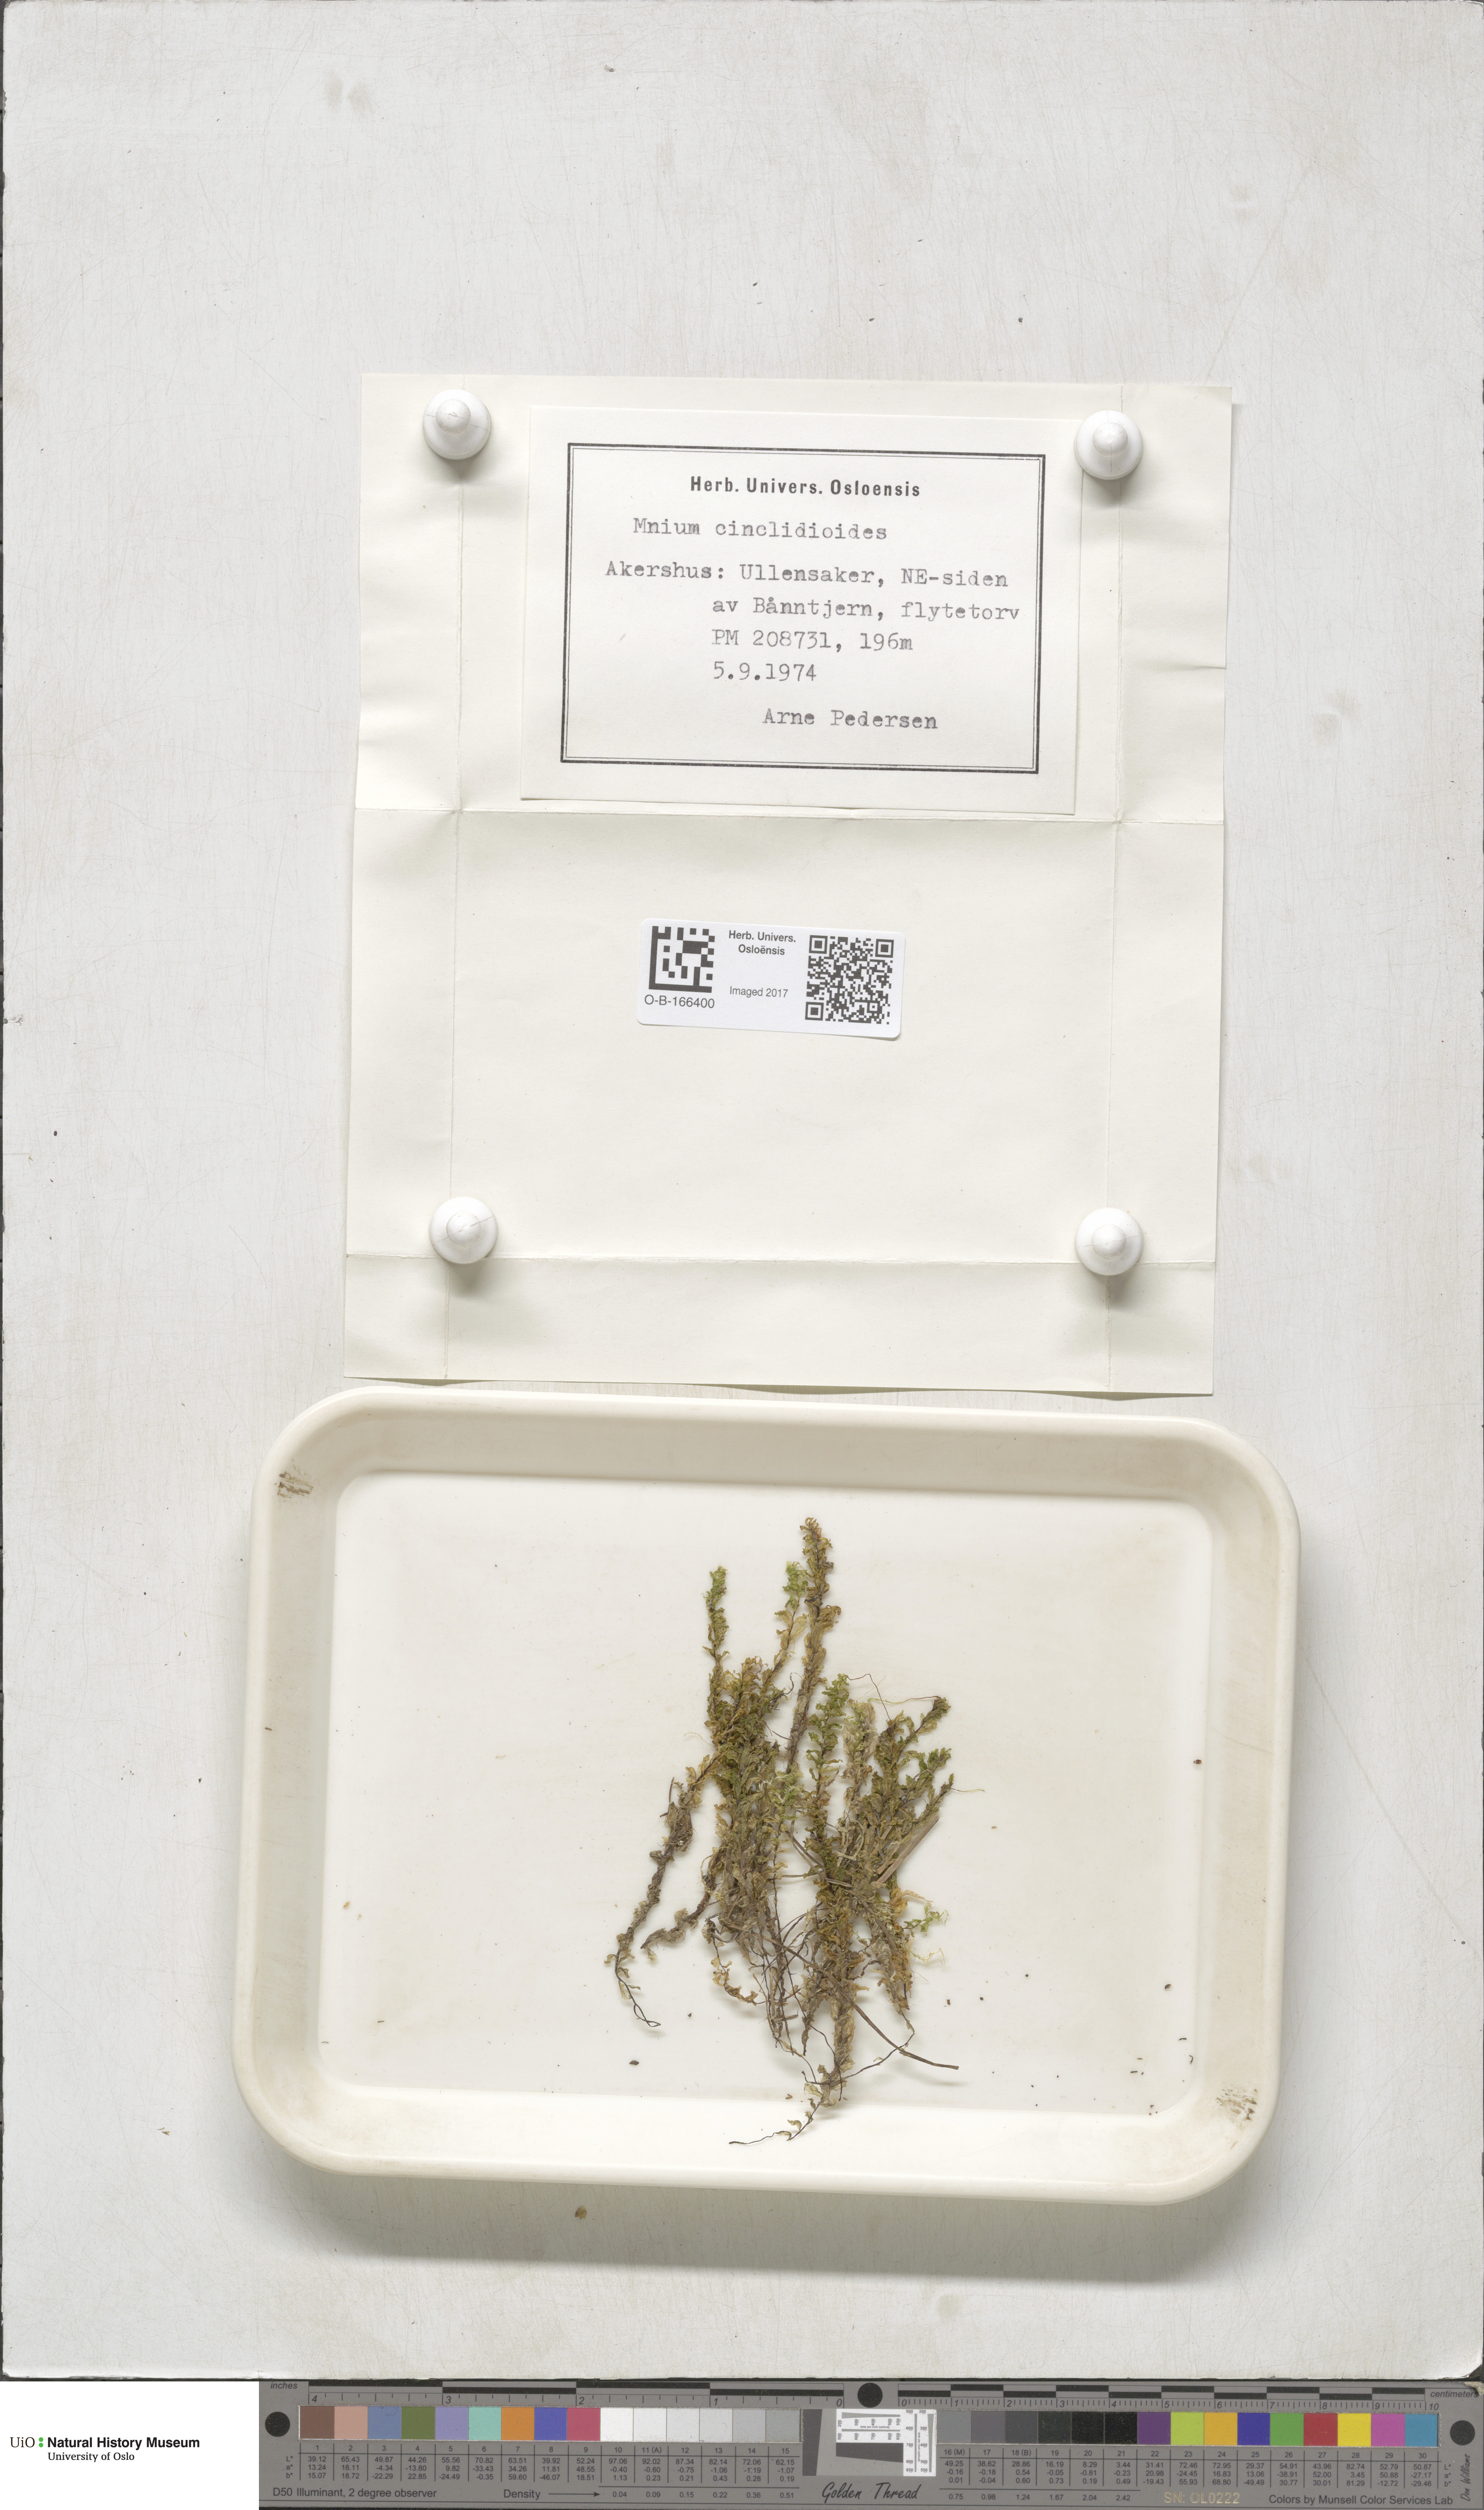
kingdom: Plantae
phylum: Bryophyta
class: Bryopsida
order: Bryales
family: Mniaceae
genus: Pseudobryum
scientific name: Pseudobryum cinclidioides
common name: River thyme moss
